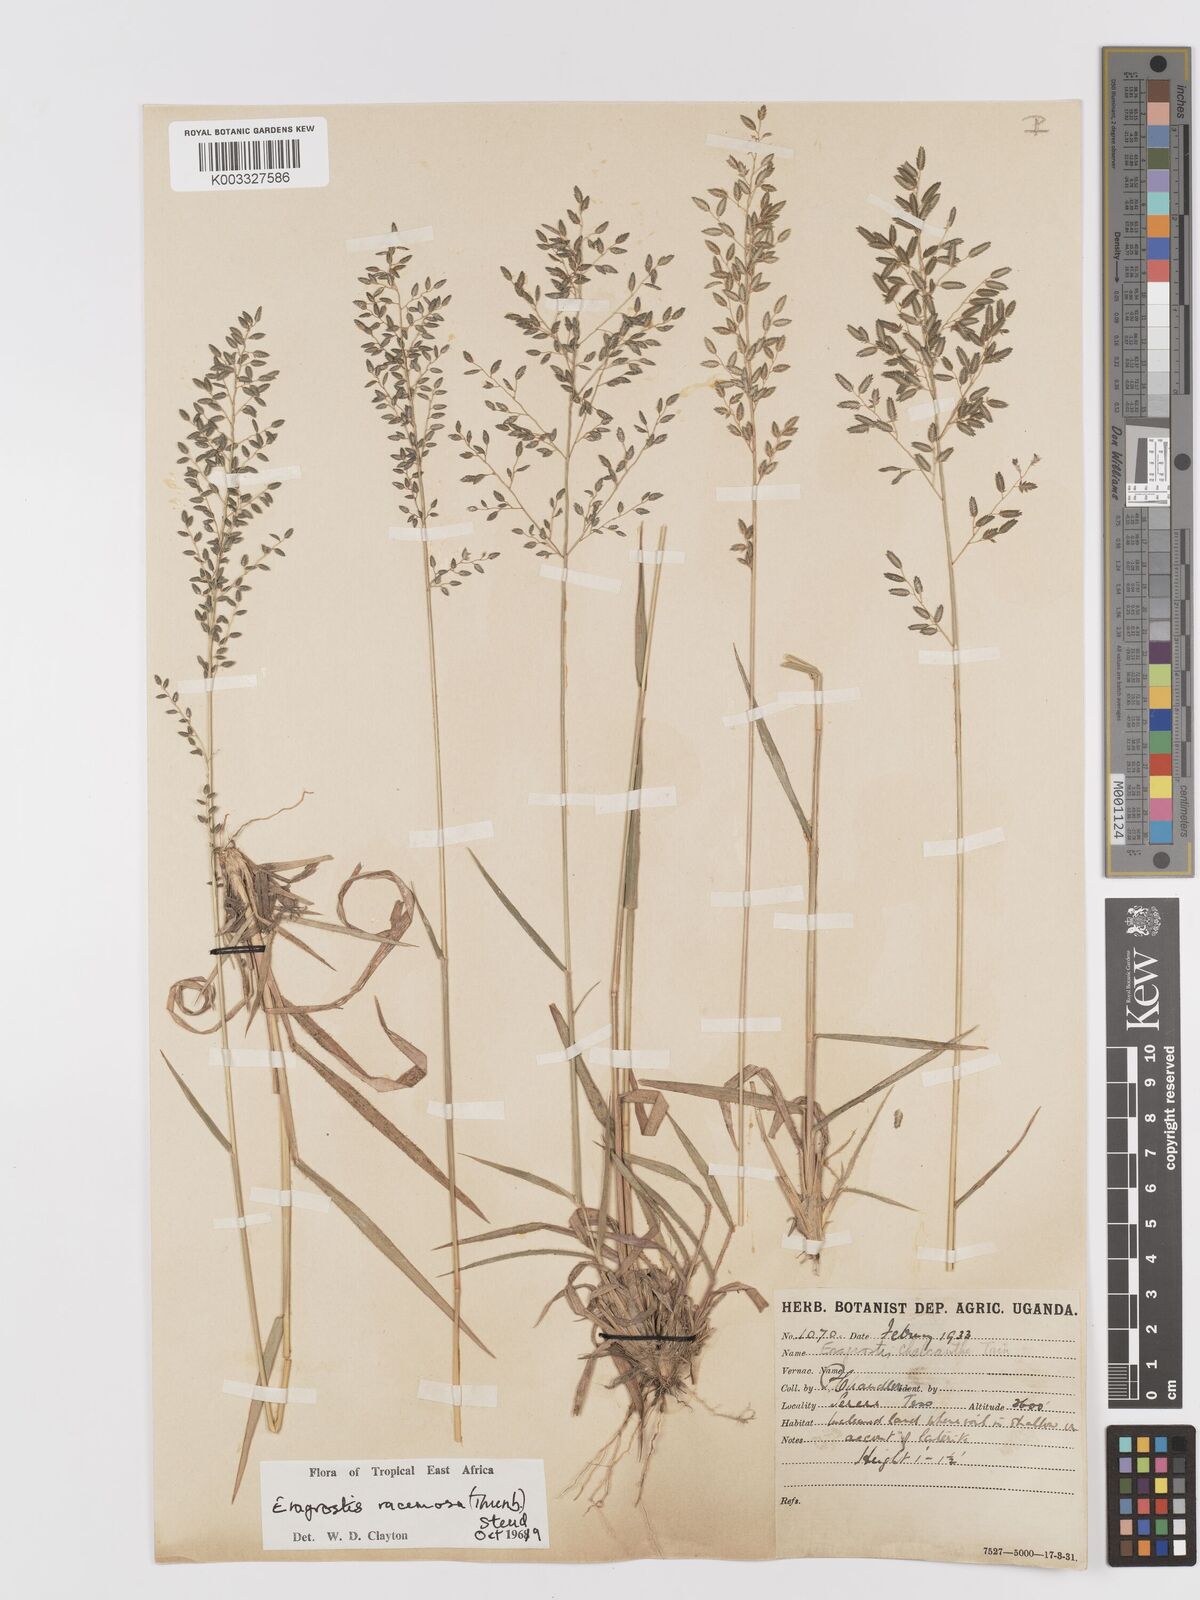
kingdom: Plantae
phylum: Tracheophyta
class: Liliopsida
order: Poales
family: Poaceae
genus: Eragrostis
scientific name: Eragrostis racemosa
